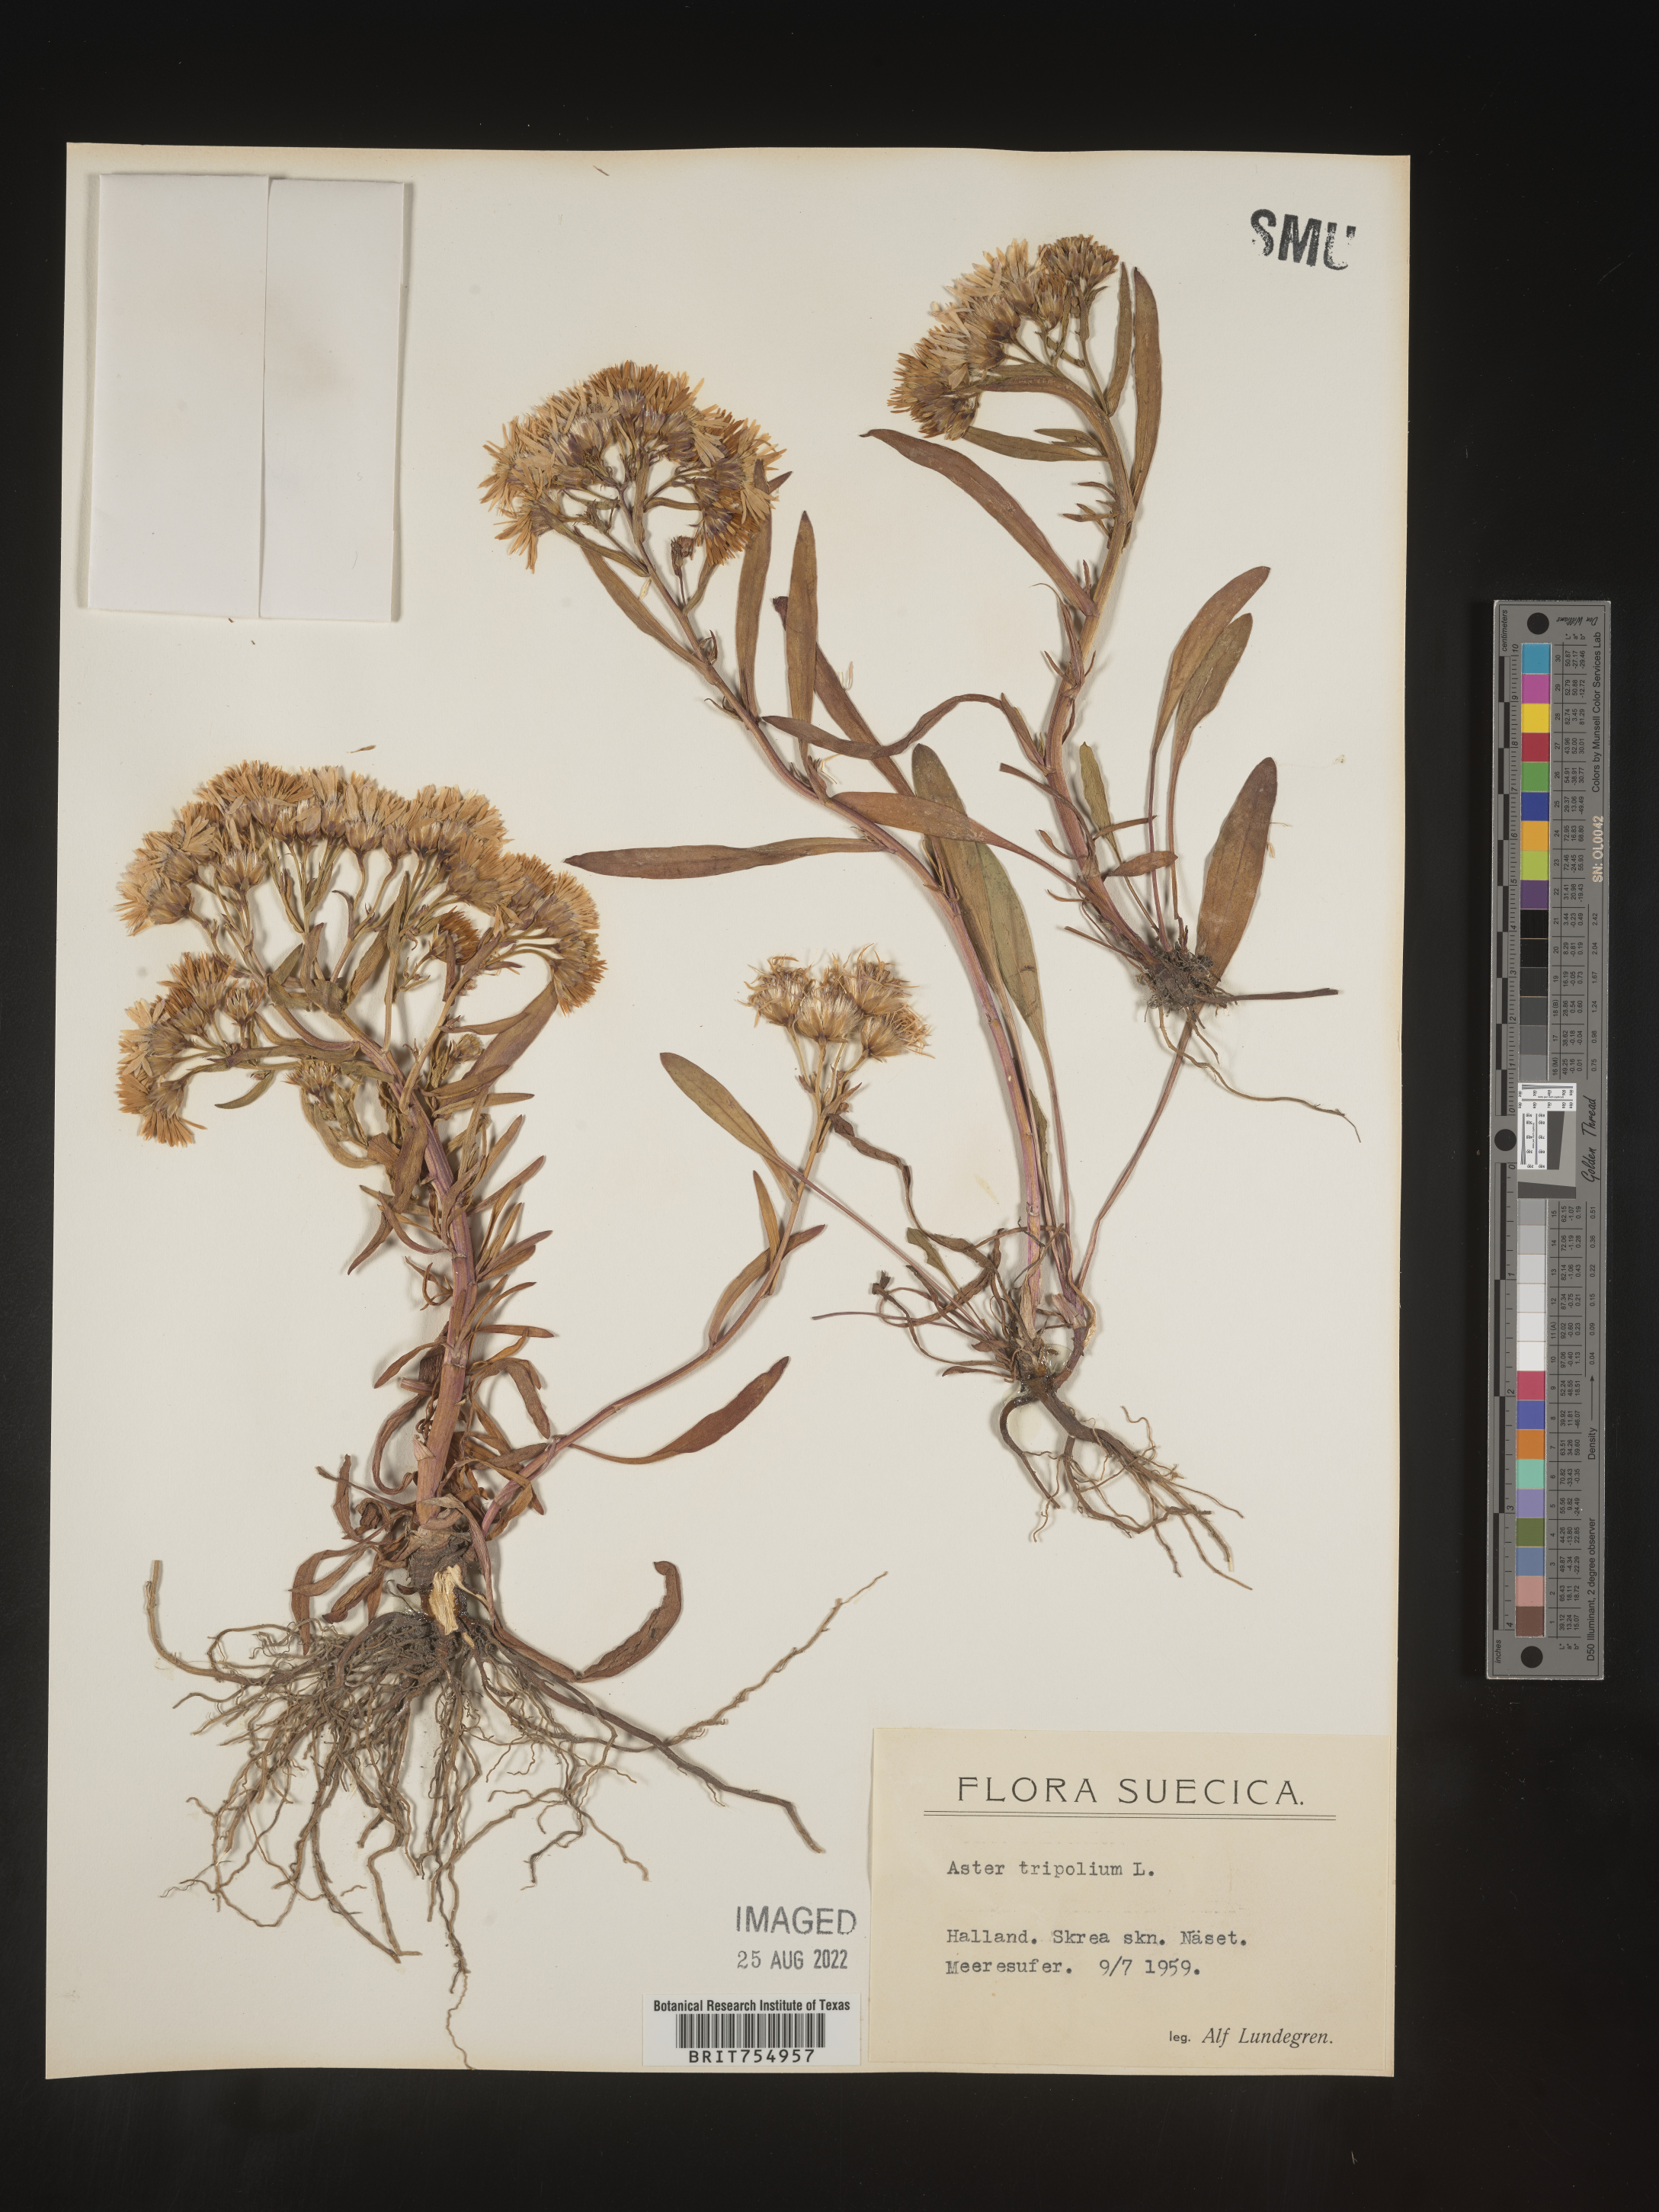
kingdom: Plantae
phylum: Tracheophyta
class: Magnoliopsida
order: Asterales
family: Asteraceae
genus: Symphyotrichum
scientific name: Symphyotrichum
